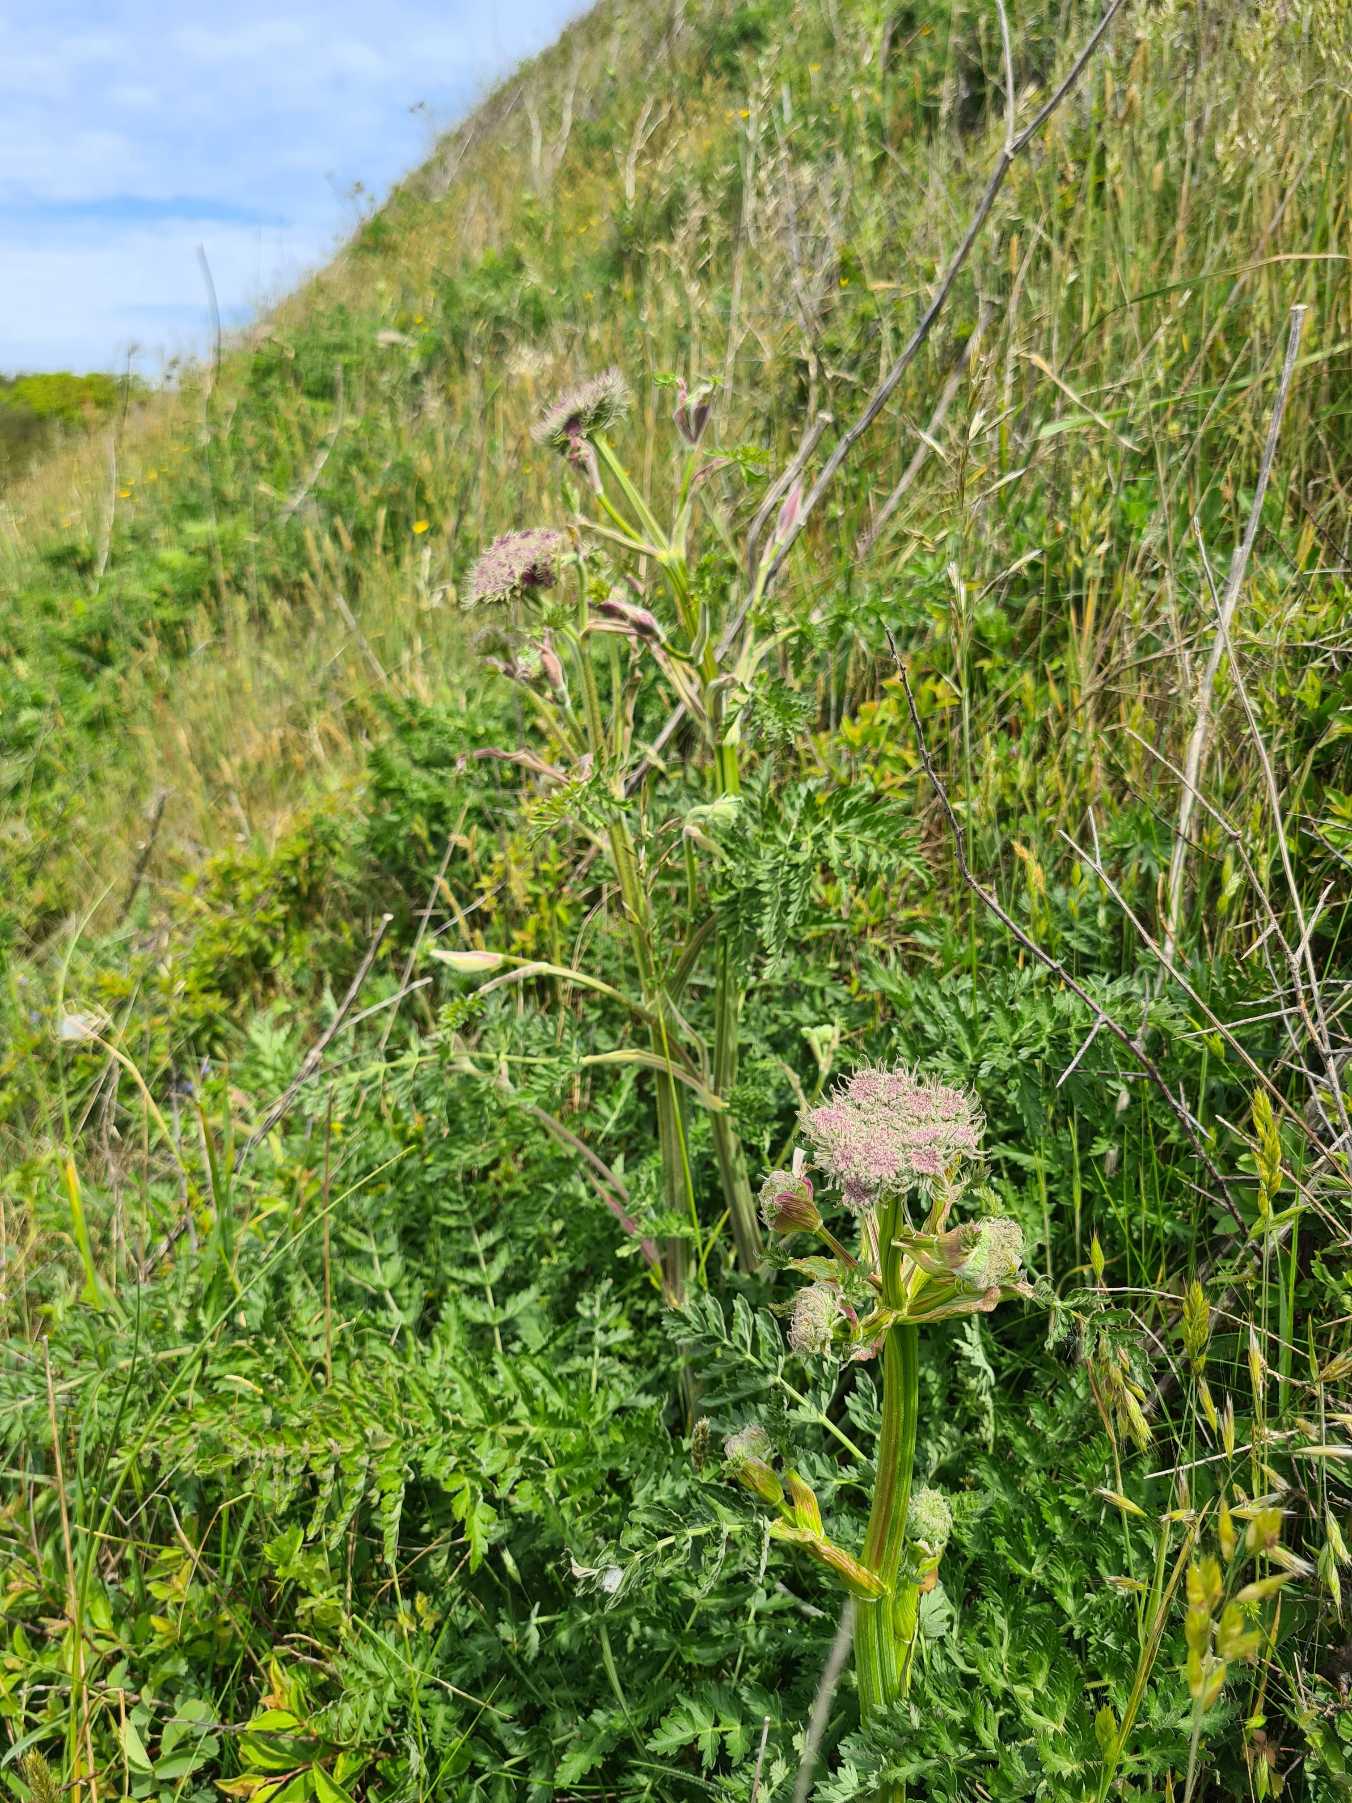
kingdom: Plantae
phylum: Tracheophyta
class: Magnoliopsida
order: Apiales
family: Apiaceae
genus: Seseli
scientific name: Seseli libanotis
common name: Hjorterod
